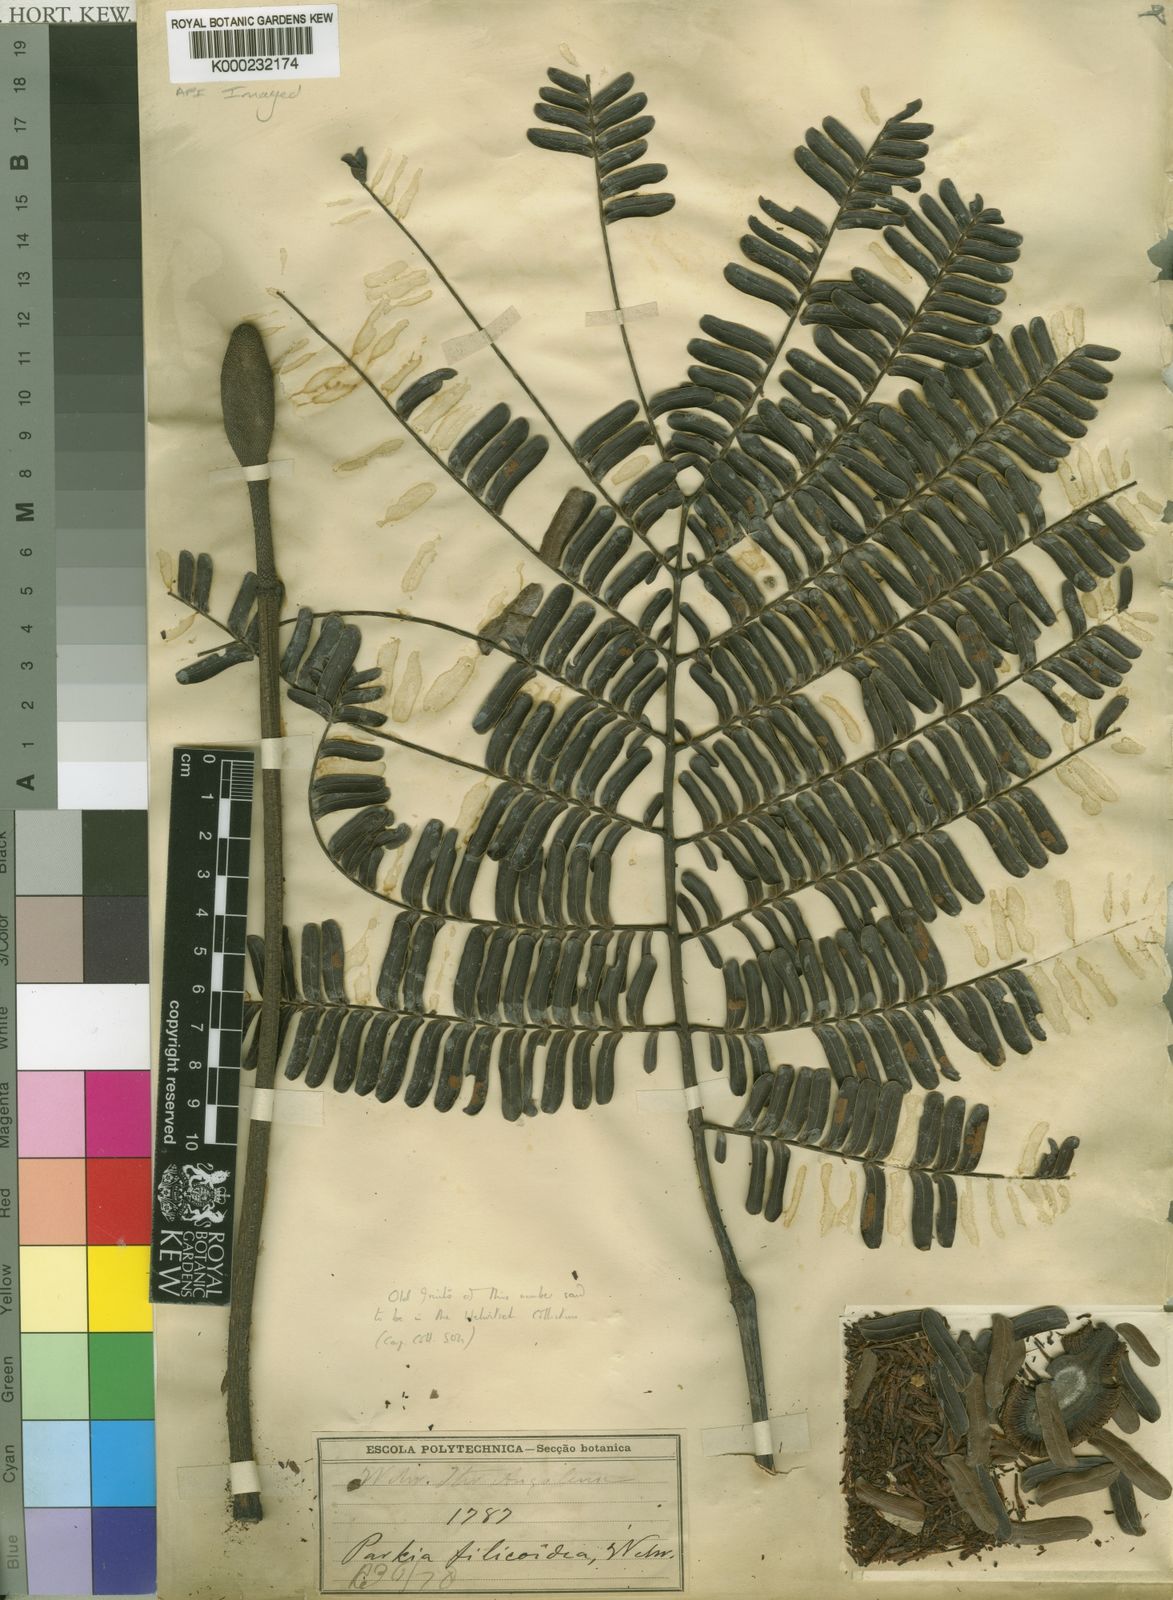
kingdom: Plantae
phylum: Tracheophyta
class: Magnoliopsida
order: Fabales
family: Fabaceae
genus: Parkia
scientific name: Parkia filicoidea
